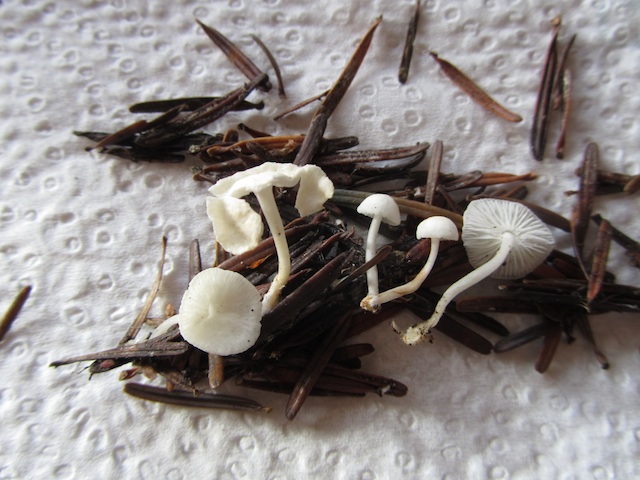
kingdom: Fungi
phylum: Basidiomycota
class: Agaricomycetes
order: Agaricales
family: Mycenaceae
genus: Hemimycena
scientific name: Hemimycena lactea
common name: mælkehvid huesvamp
